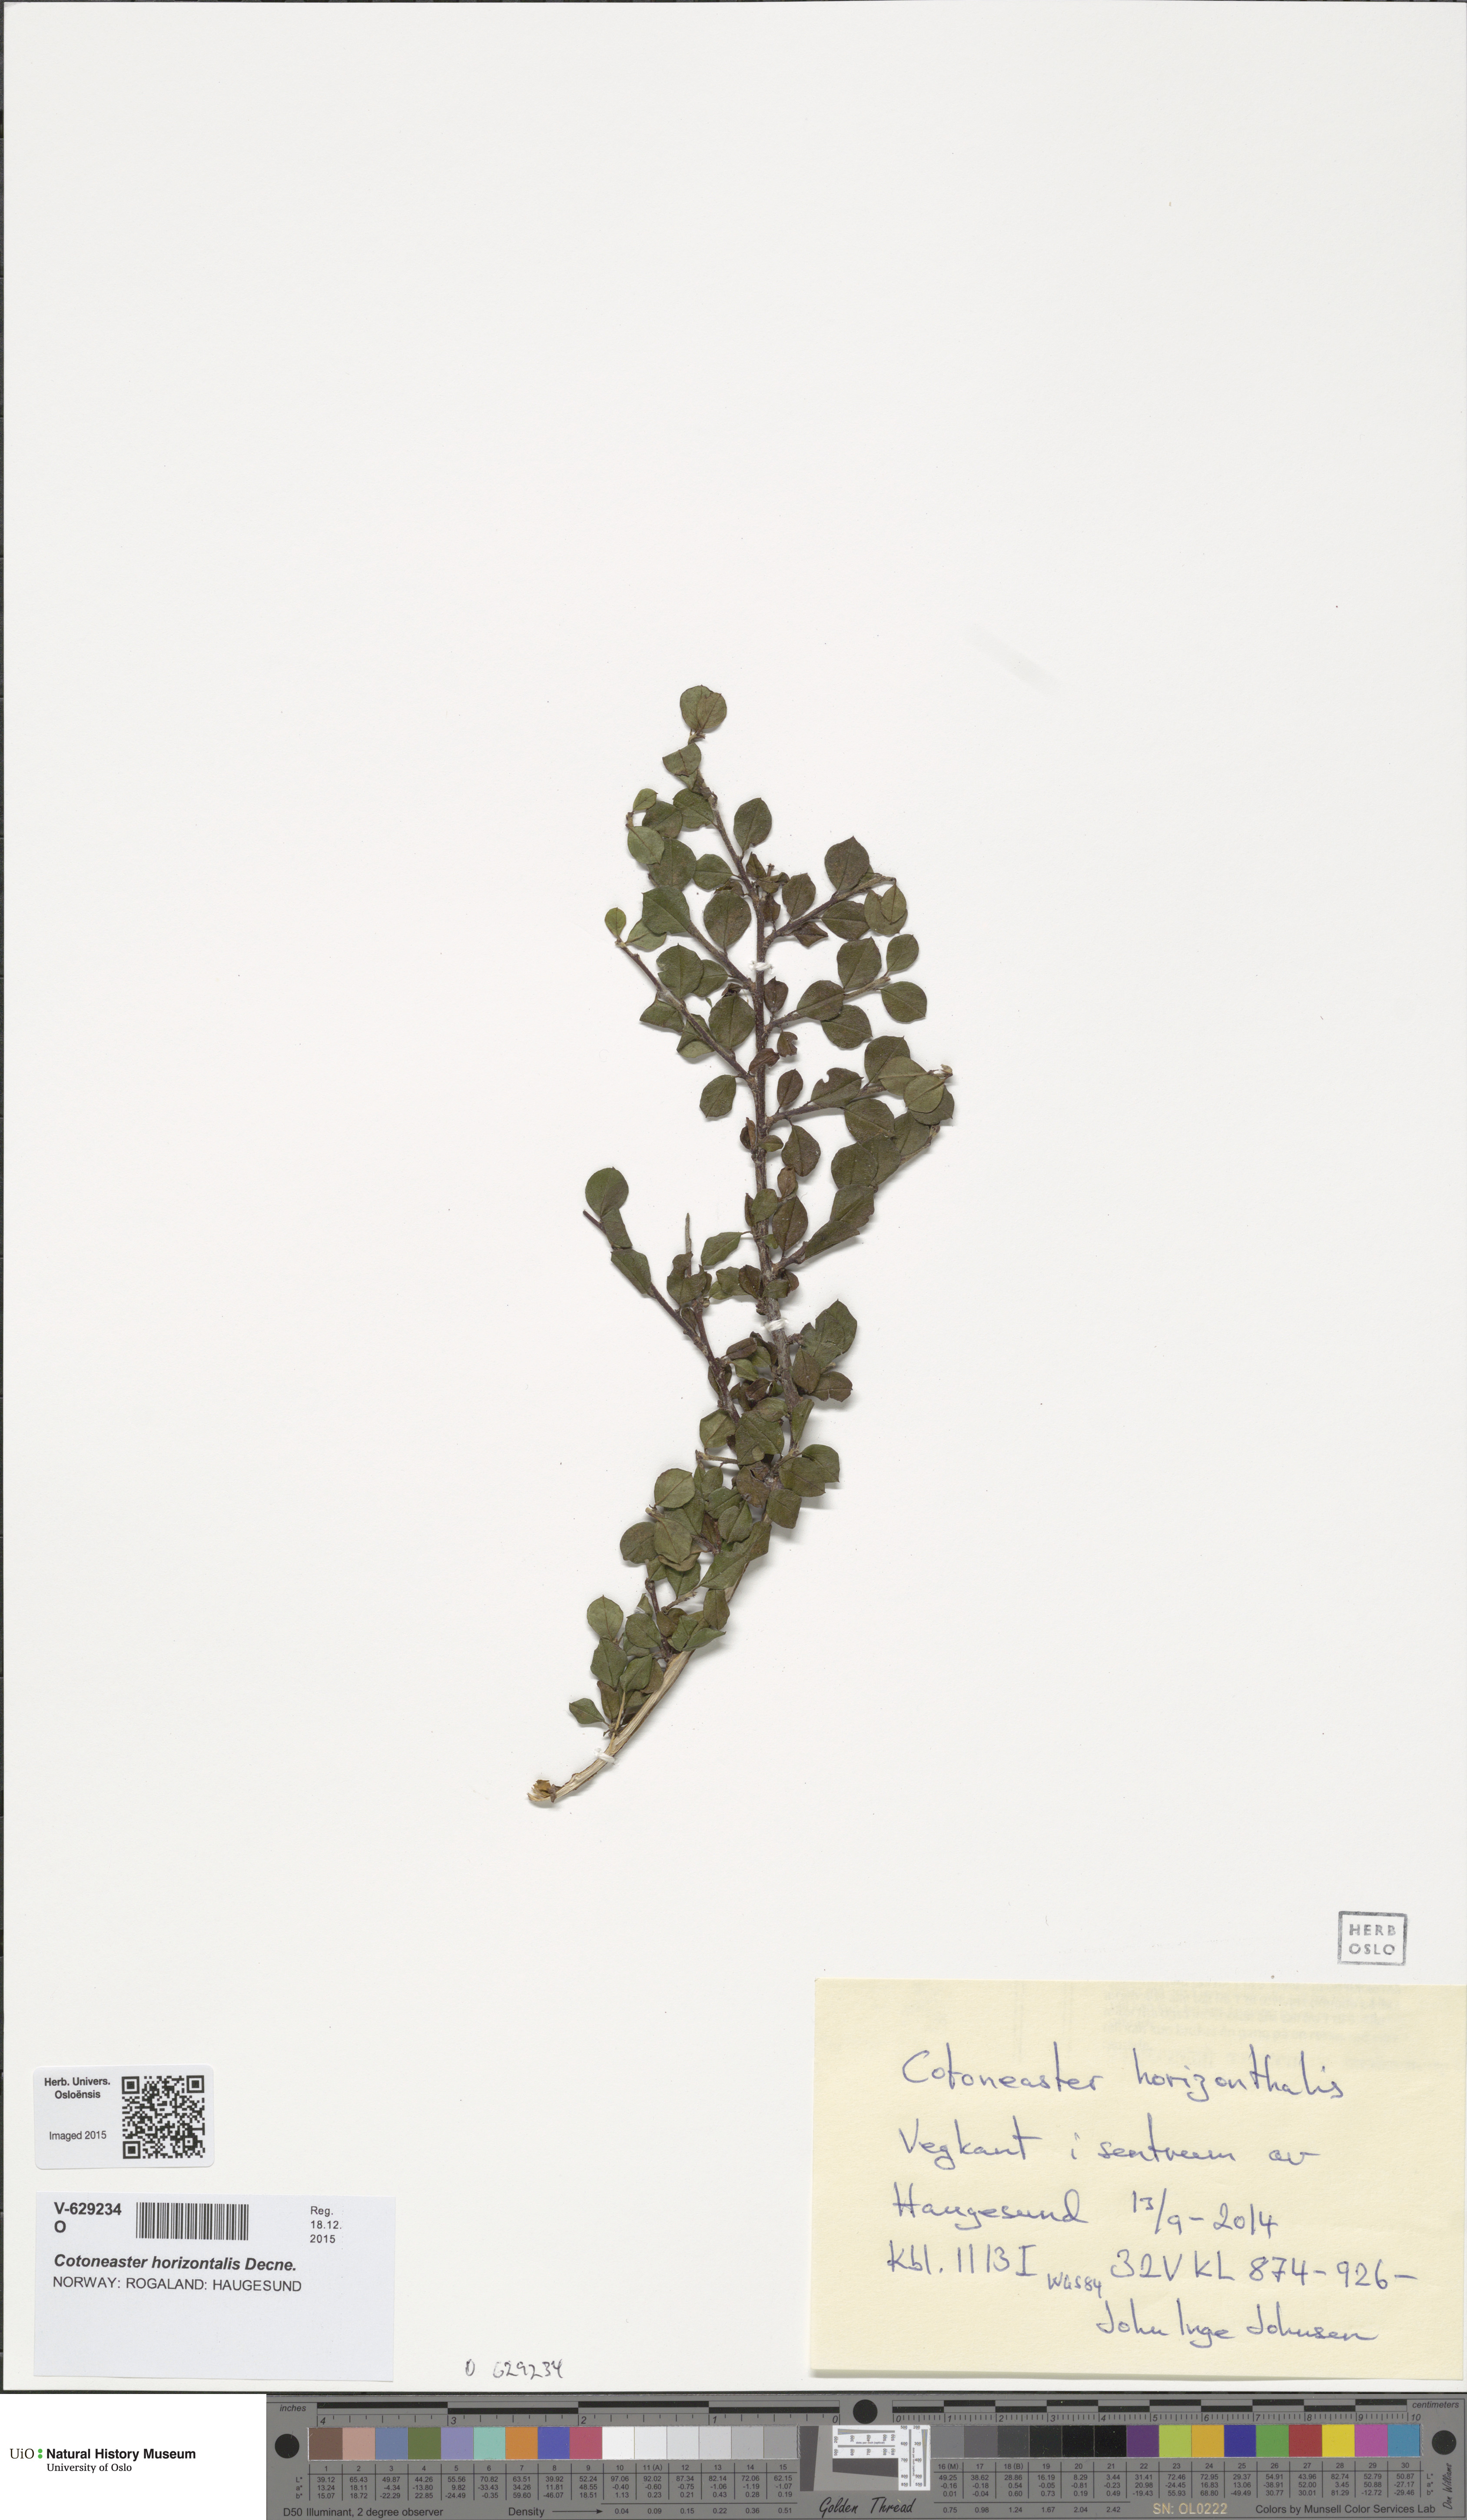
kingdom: Plantae
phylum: Tracheophyta
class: Magnoliopsida
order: Rosales
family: Rosaceae
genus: Cotoneaster
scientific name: Cotoneaster horizontalis
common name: Wall cotoneaster
